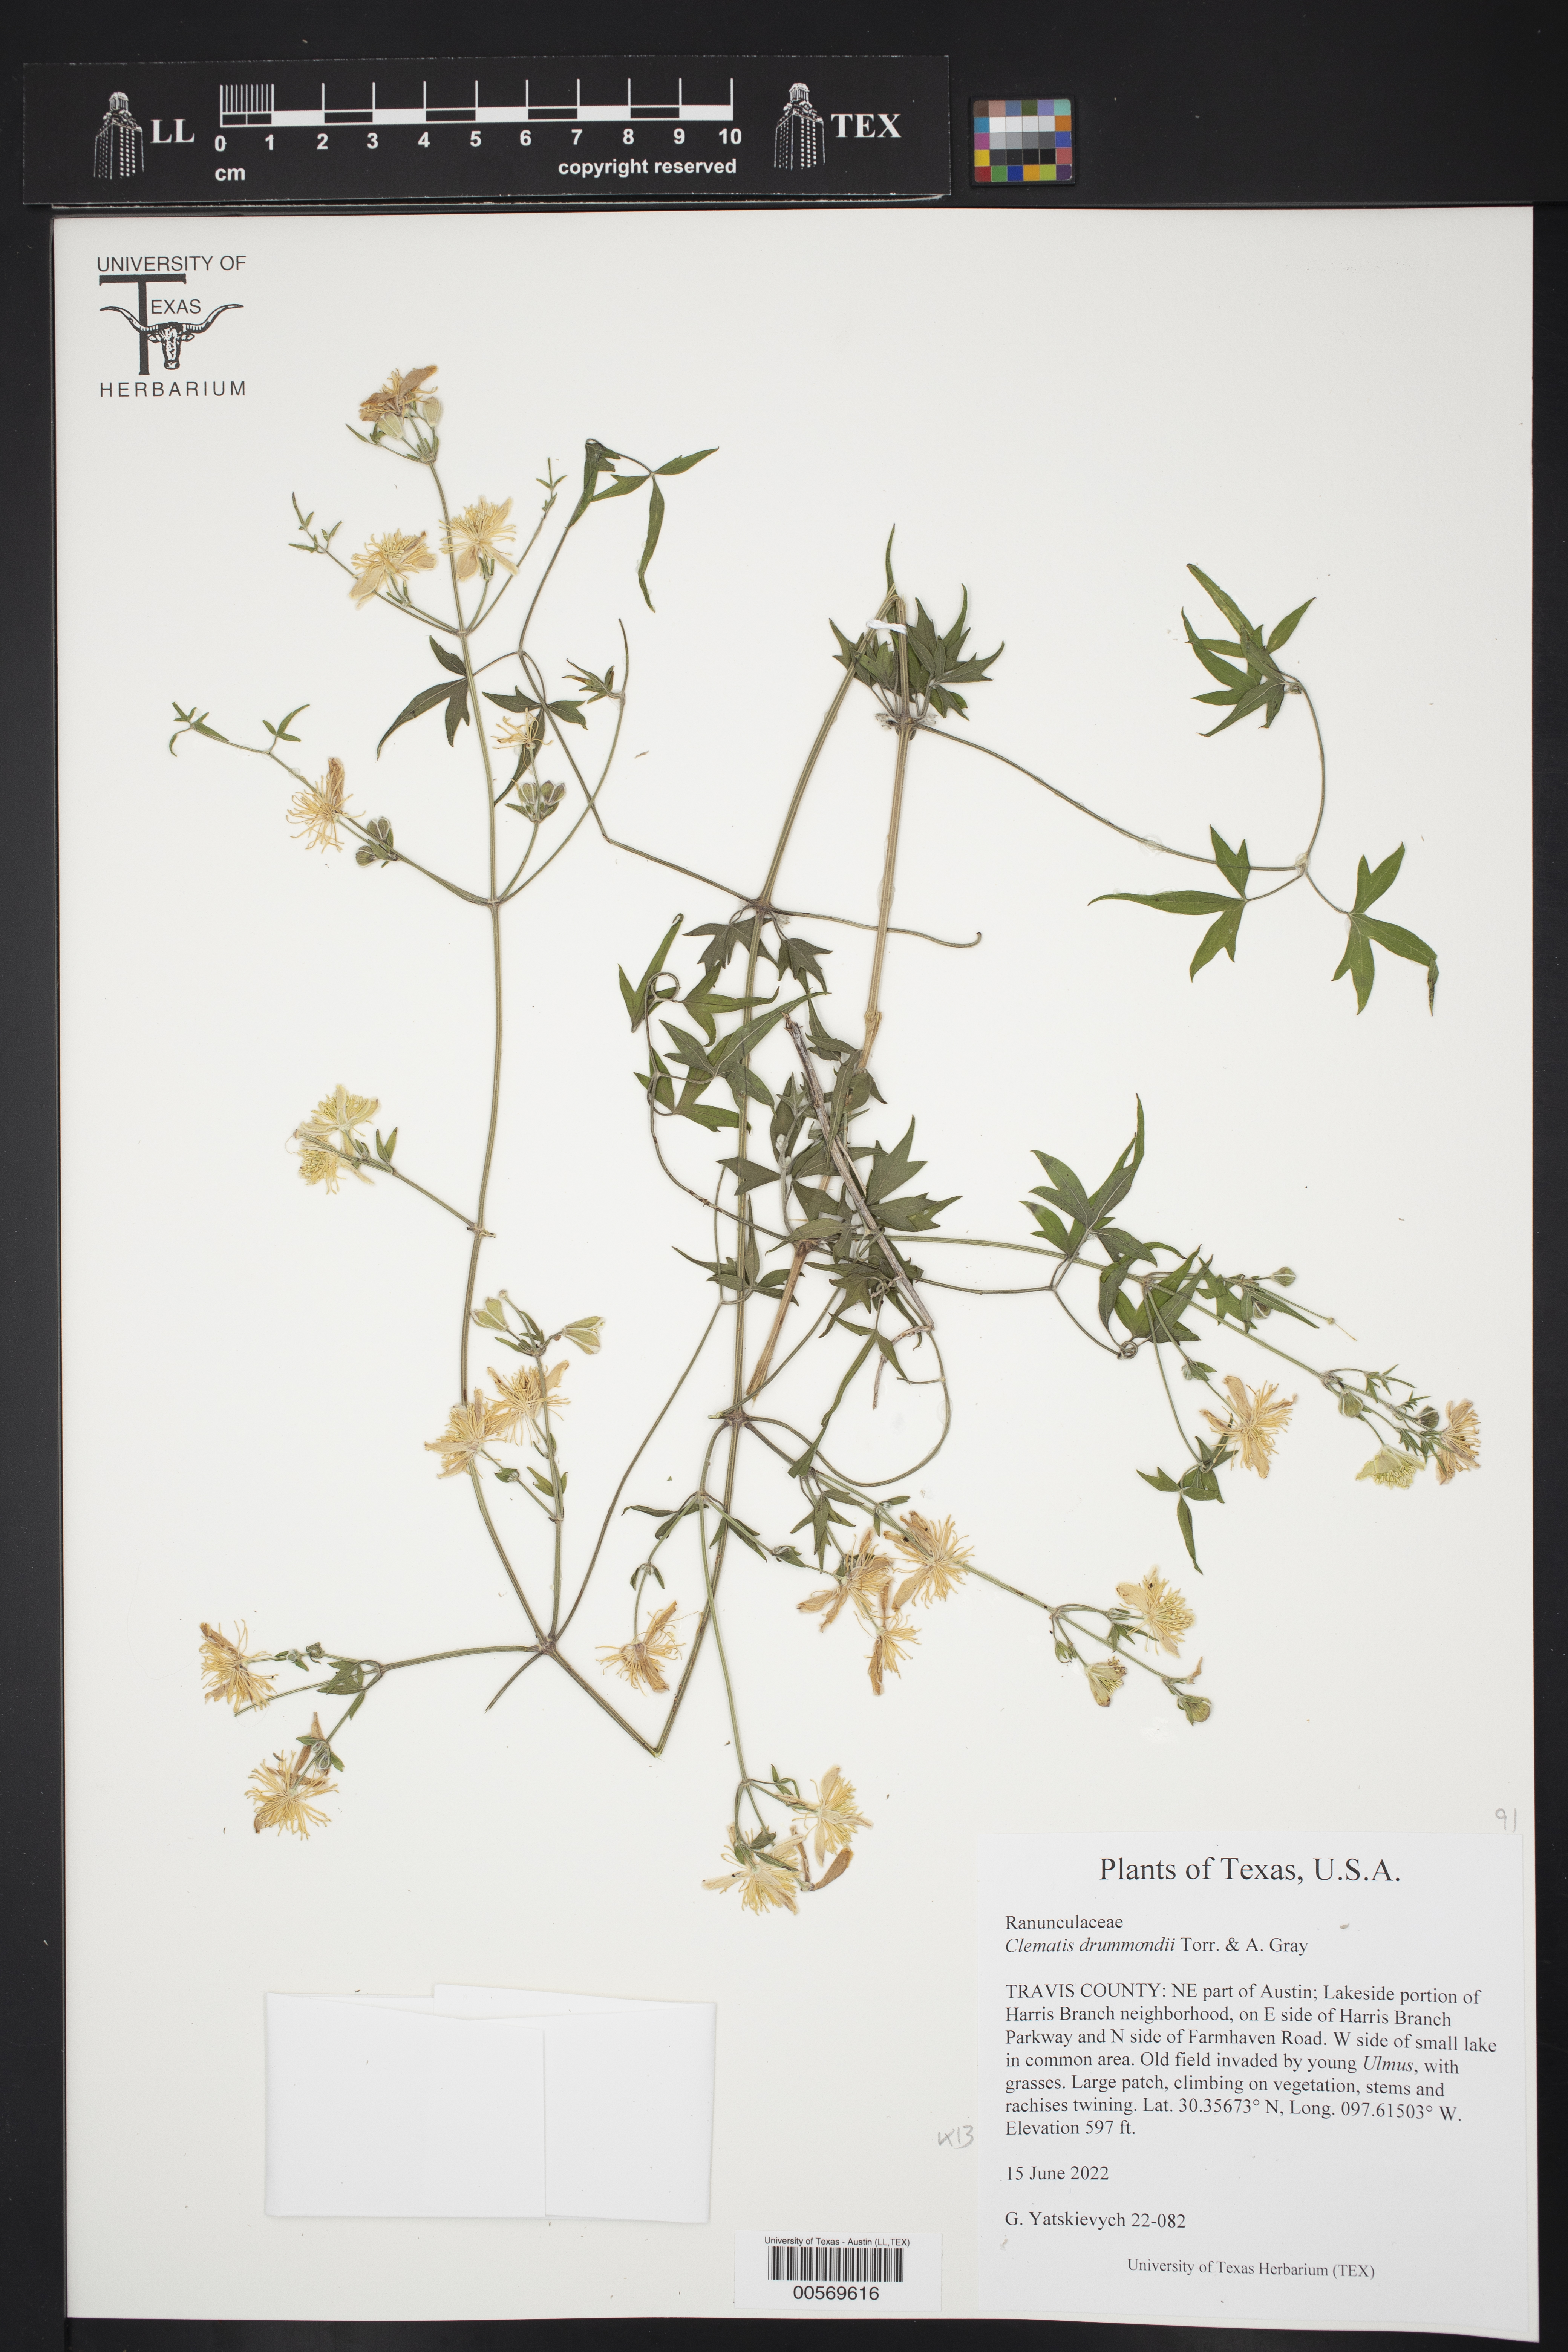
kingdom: Plantae
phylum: Tracheophyta
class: Magnoliopsida
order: Ranunculales
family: Ranunculaceae
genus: Clematis
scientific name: Clematis drummondii
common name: Texas virgin's bower
